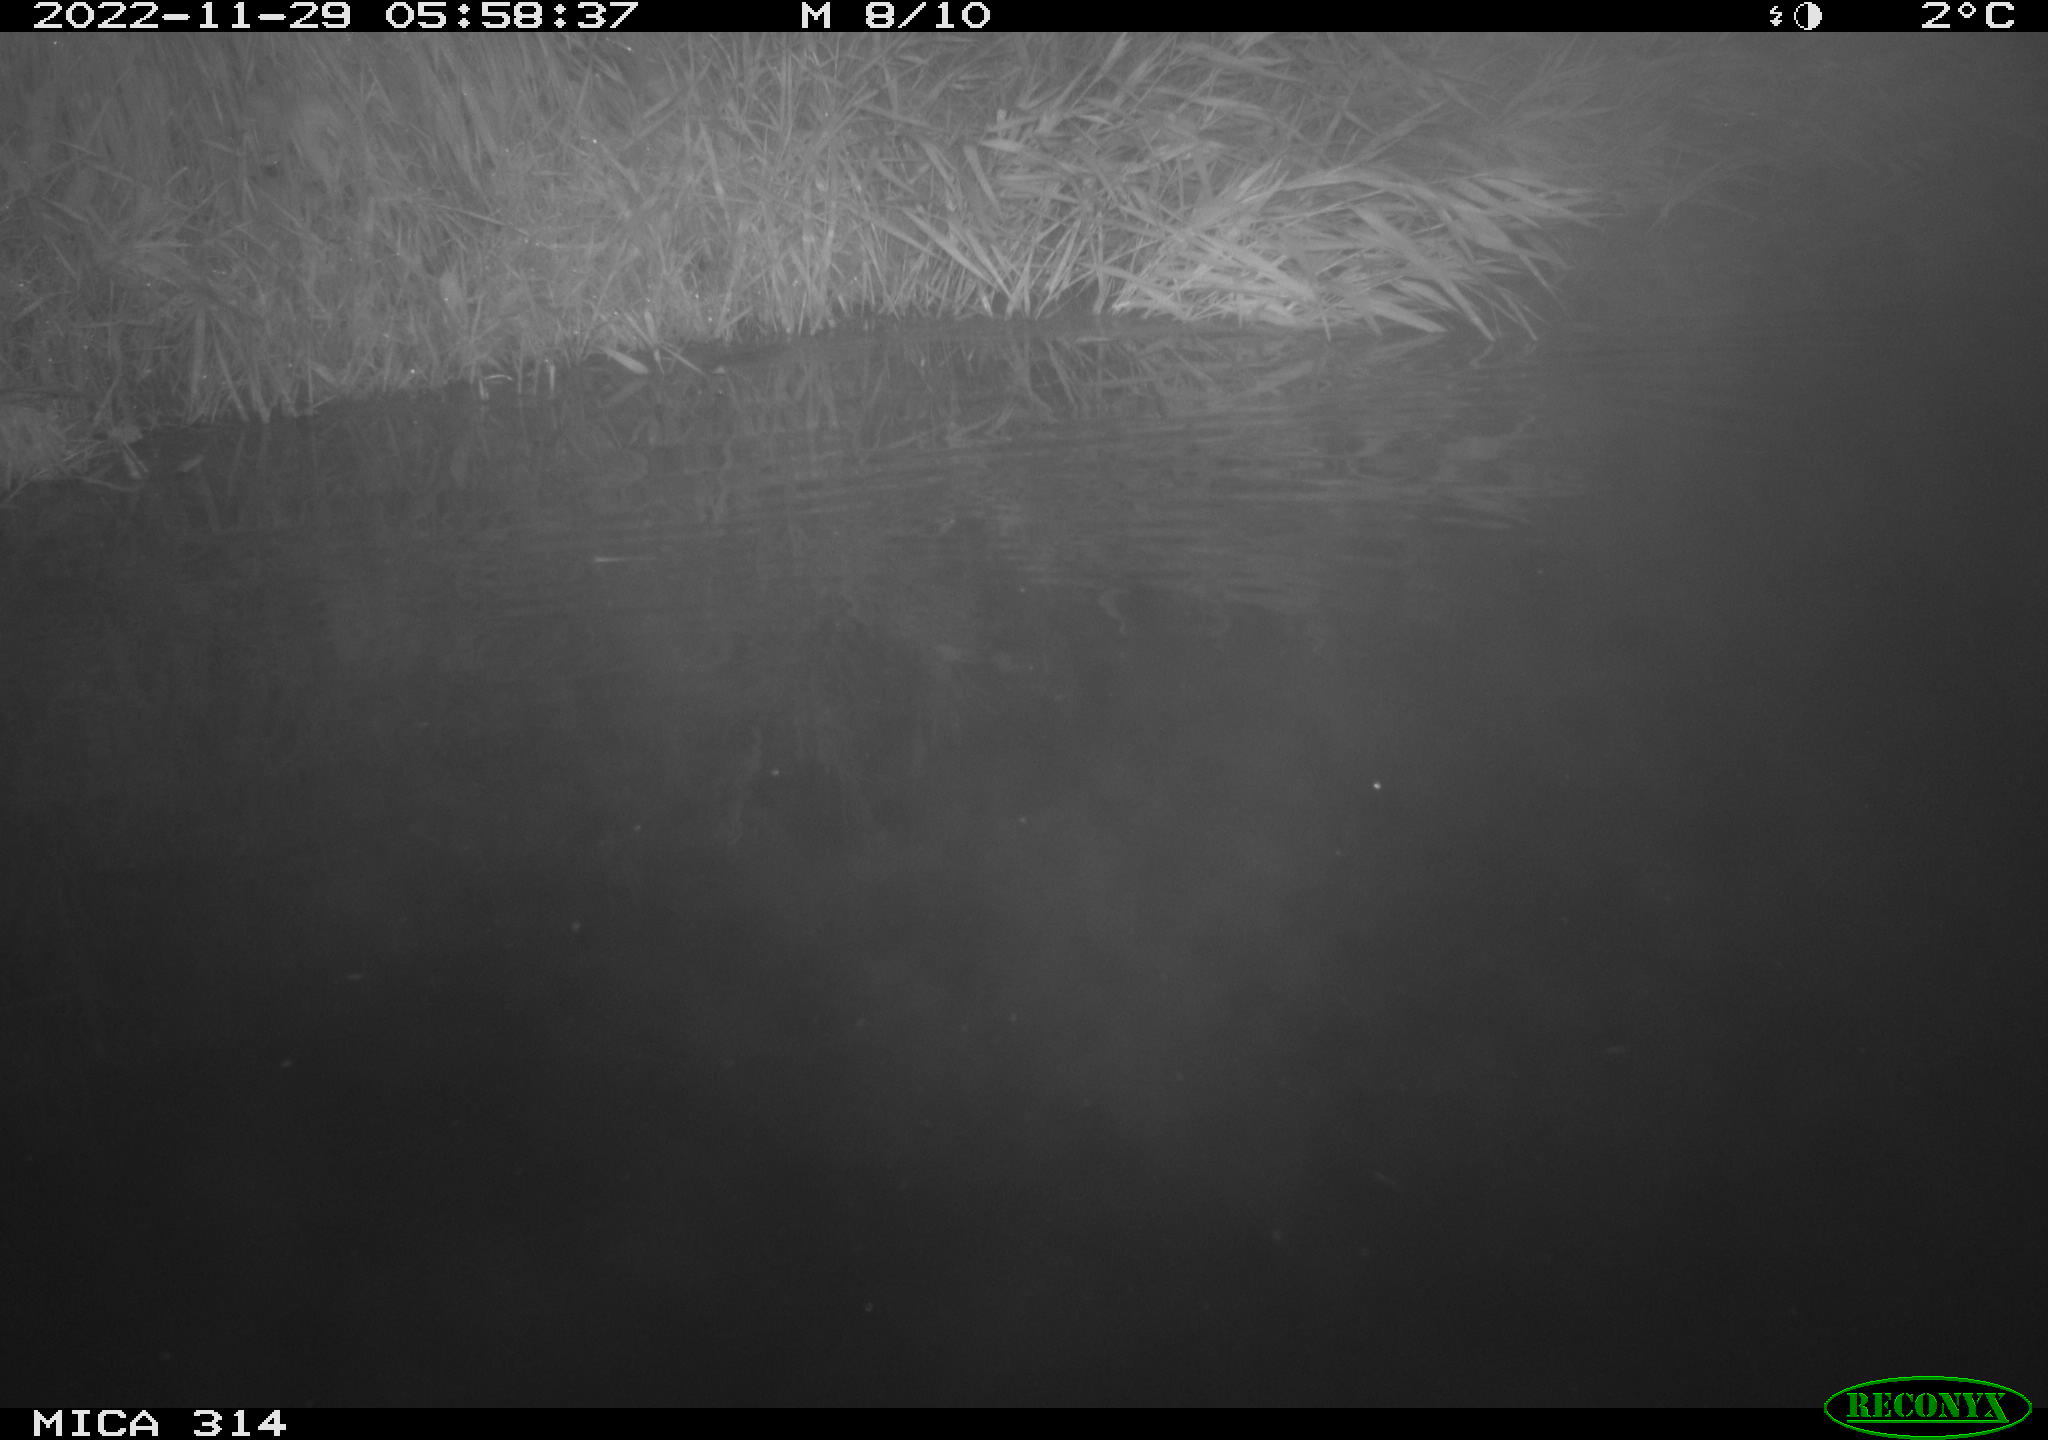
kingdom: Animalia
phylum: Chordata
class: Mammalia
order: Rodentia
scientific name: Rodentia
